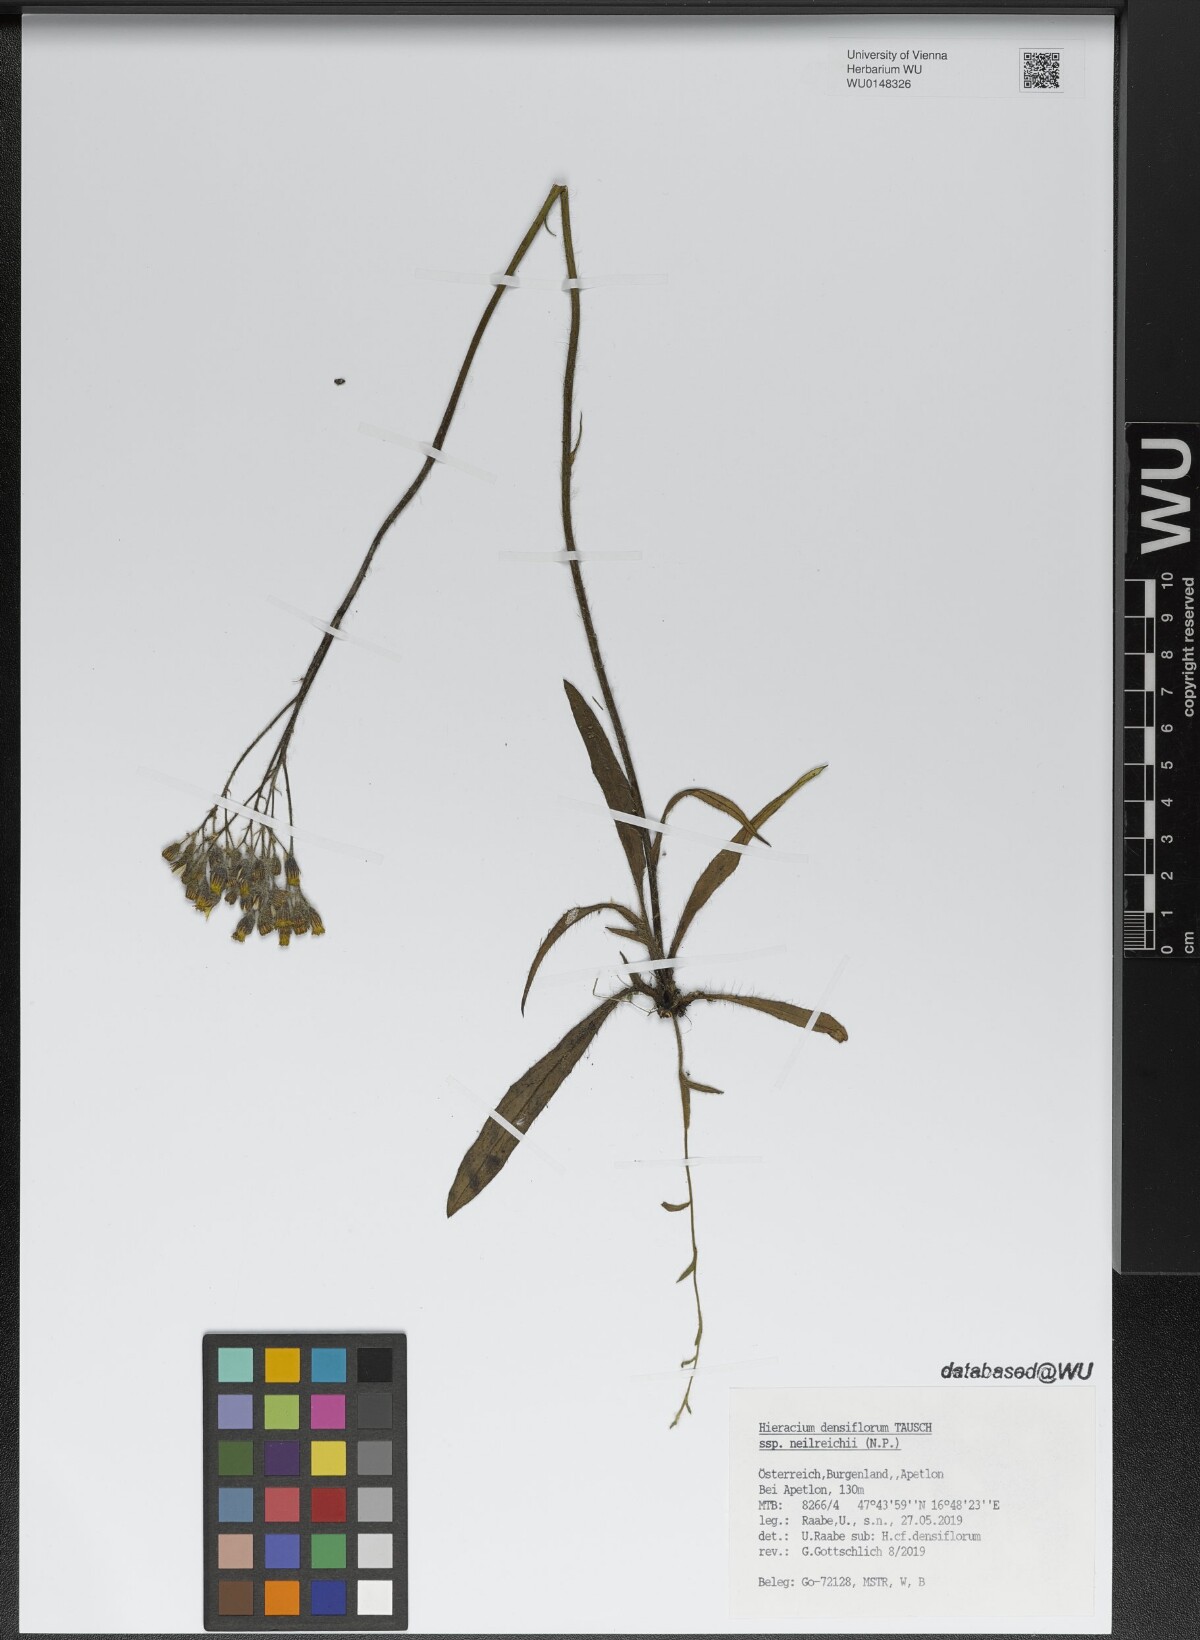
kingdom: Plantae
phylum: Tracheophyta
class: Magnoliopsida
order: Asterales
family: Asteraceae
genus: Pilosella
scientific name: Pilosella densiflora
